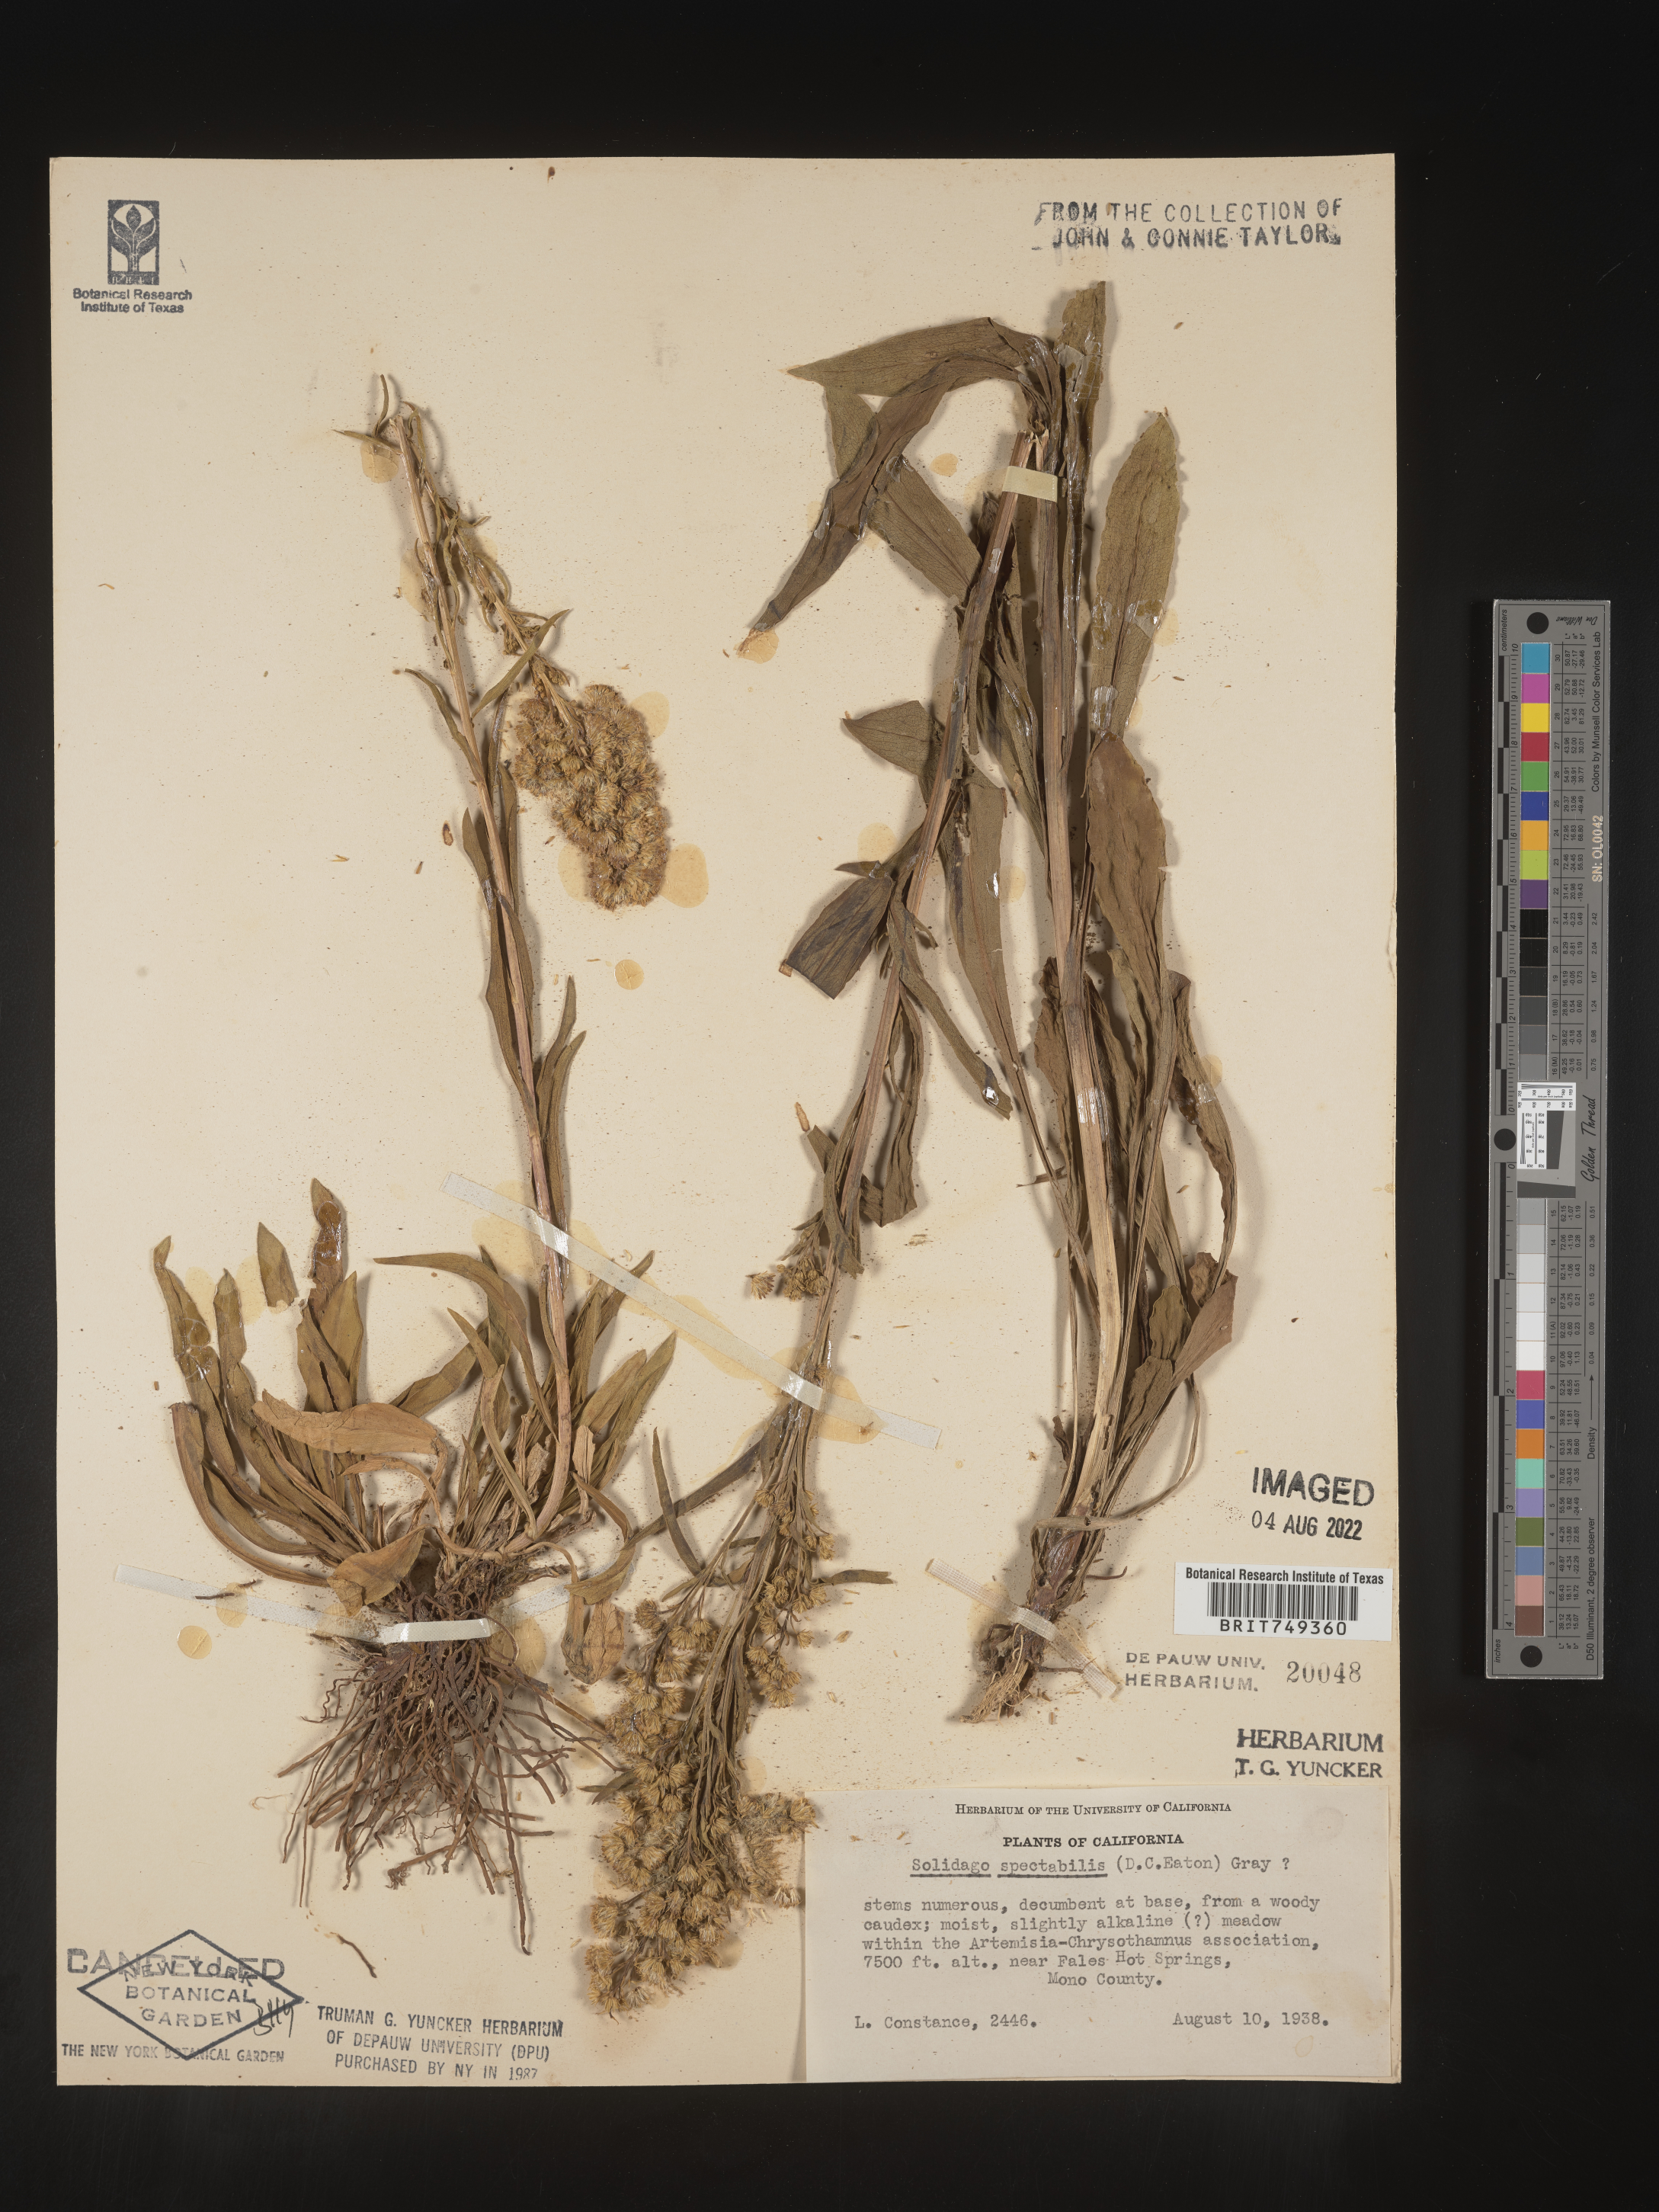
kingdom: Plantae
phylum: Tracheophyta
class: Magnoliopsida
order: Asterales
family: Asteraceae
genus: Solidago
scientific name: Solidago spectabilis
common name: Basin goldenrod
